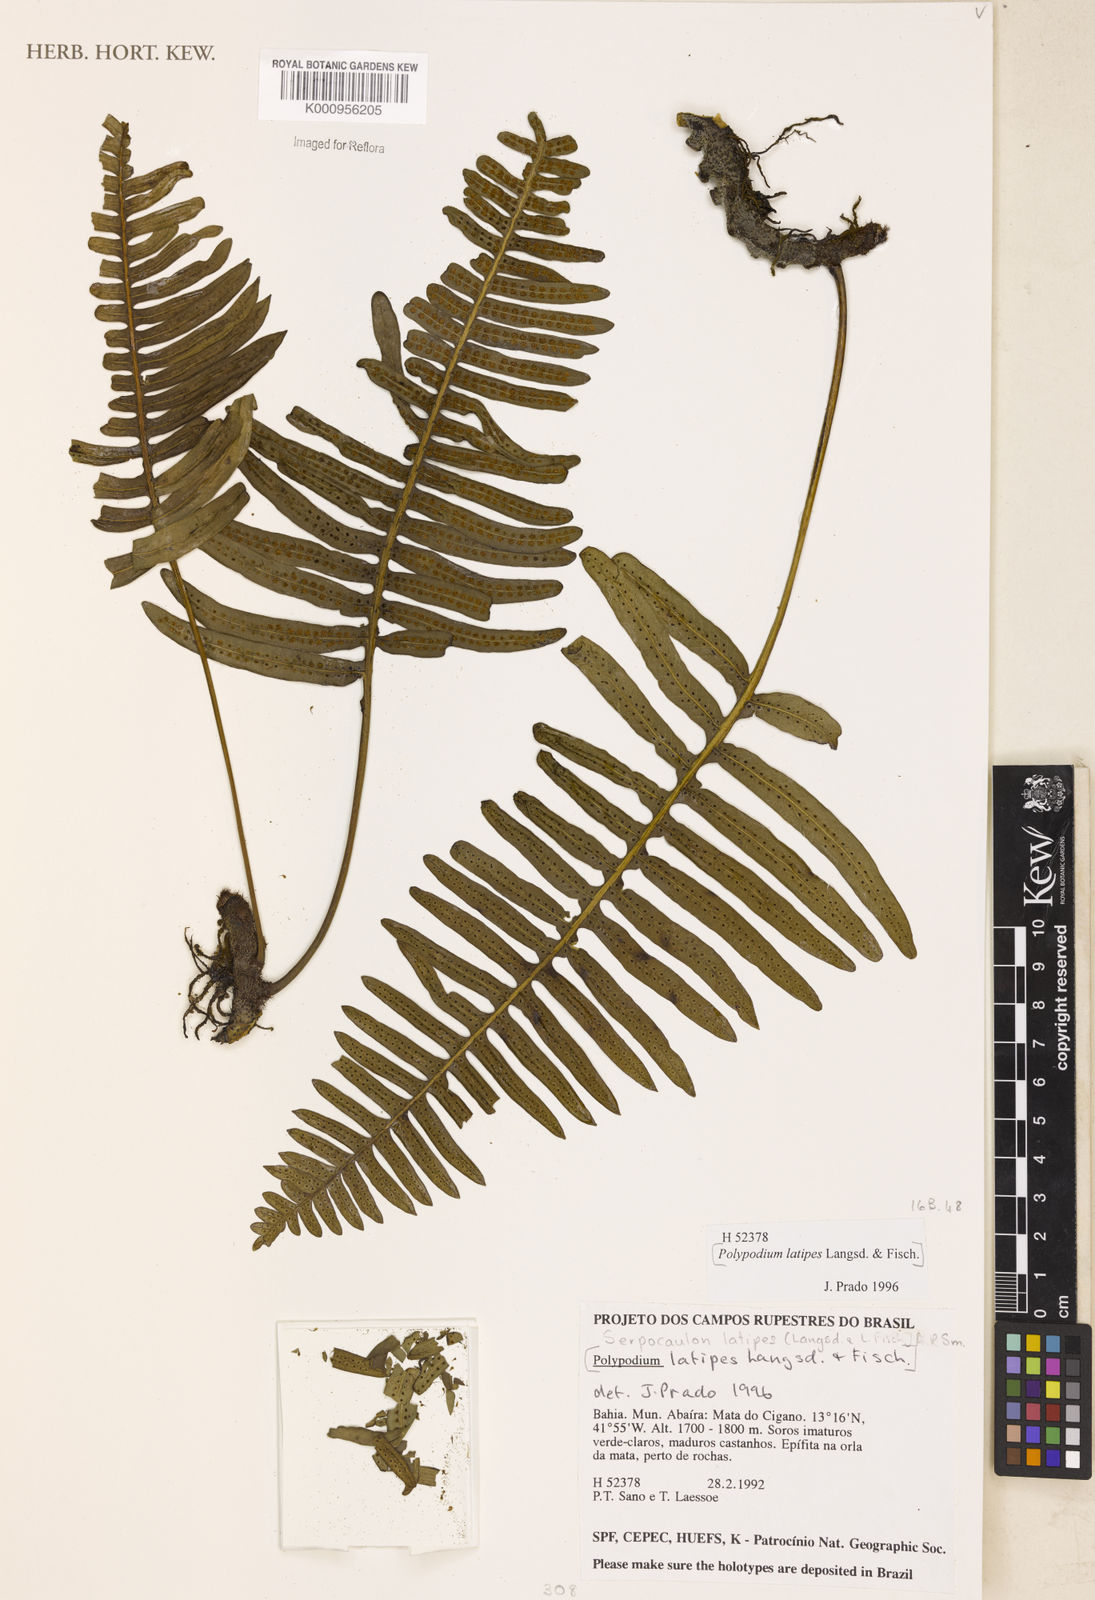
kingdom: Plantae
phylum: Tracheophyta
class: Polypodiopsida
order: Polypodiales
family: Polypodiaceae
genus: Serpocaulon
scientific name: Serpocaulon latipes
